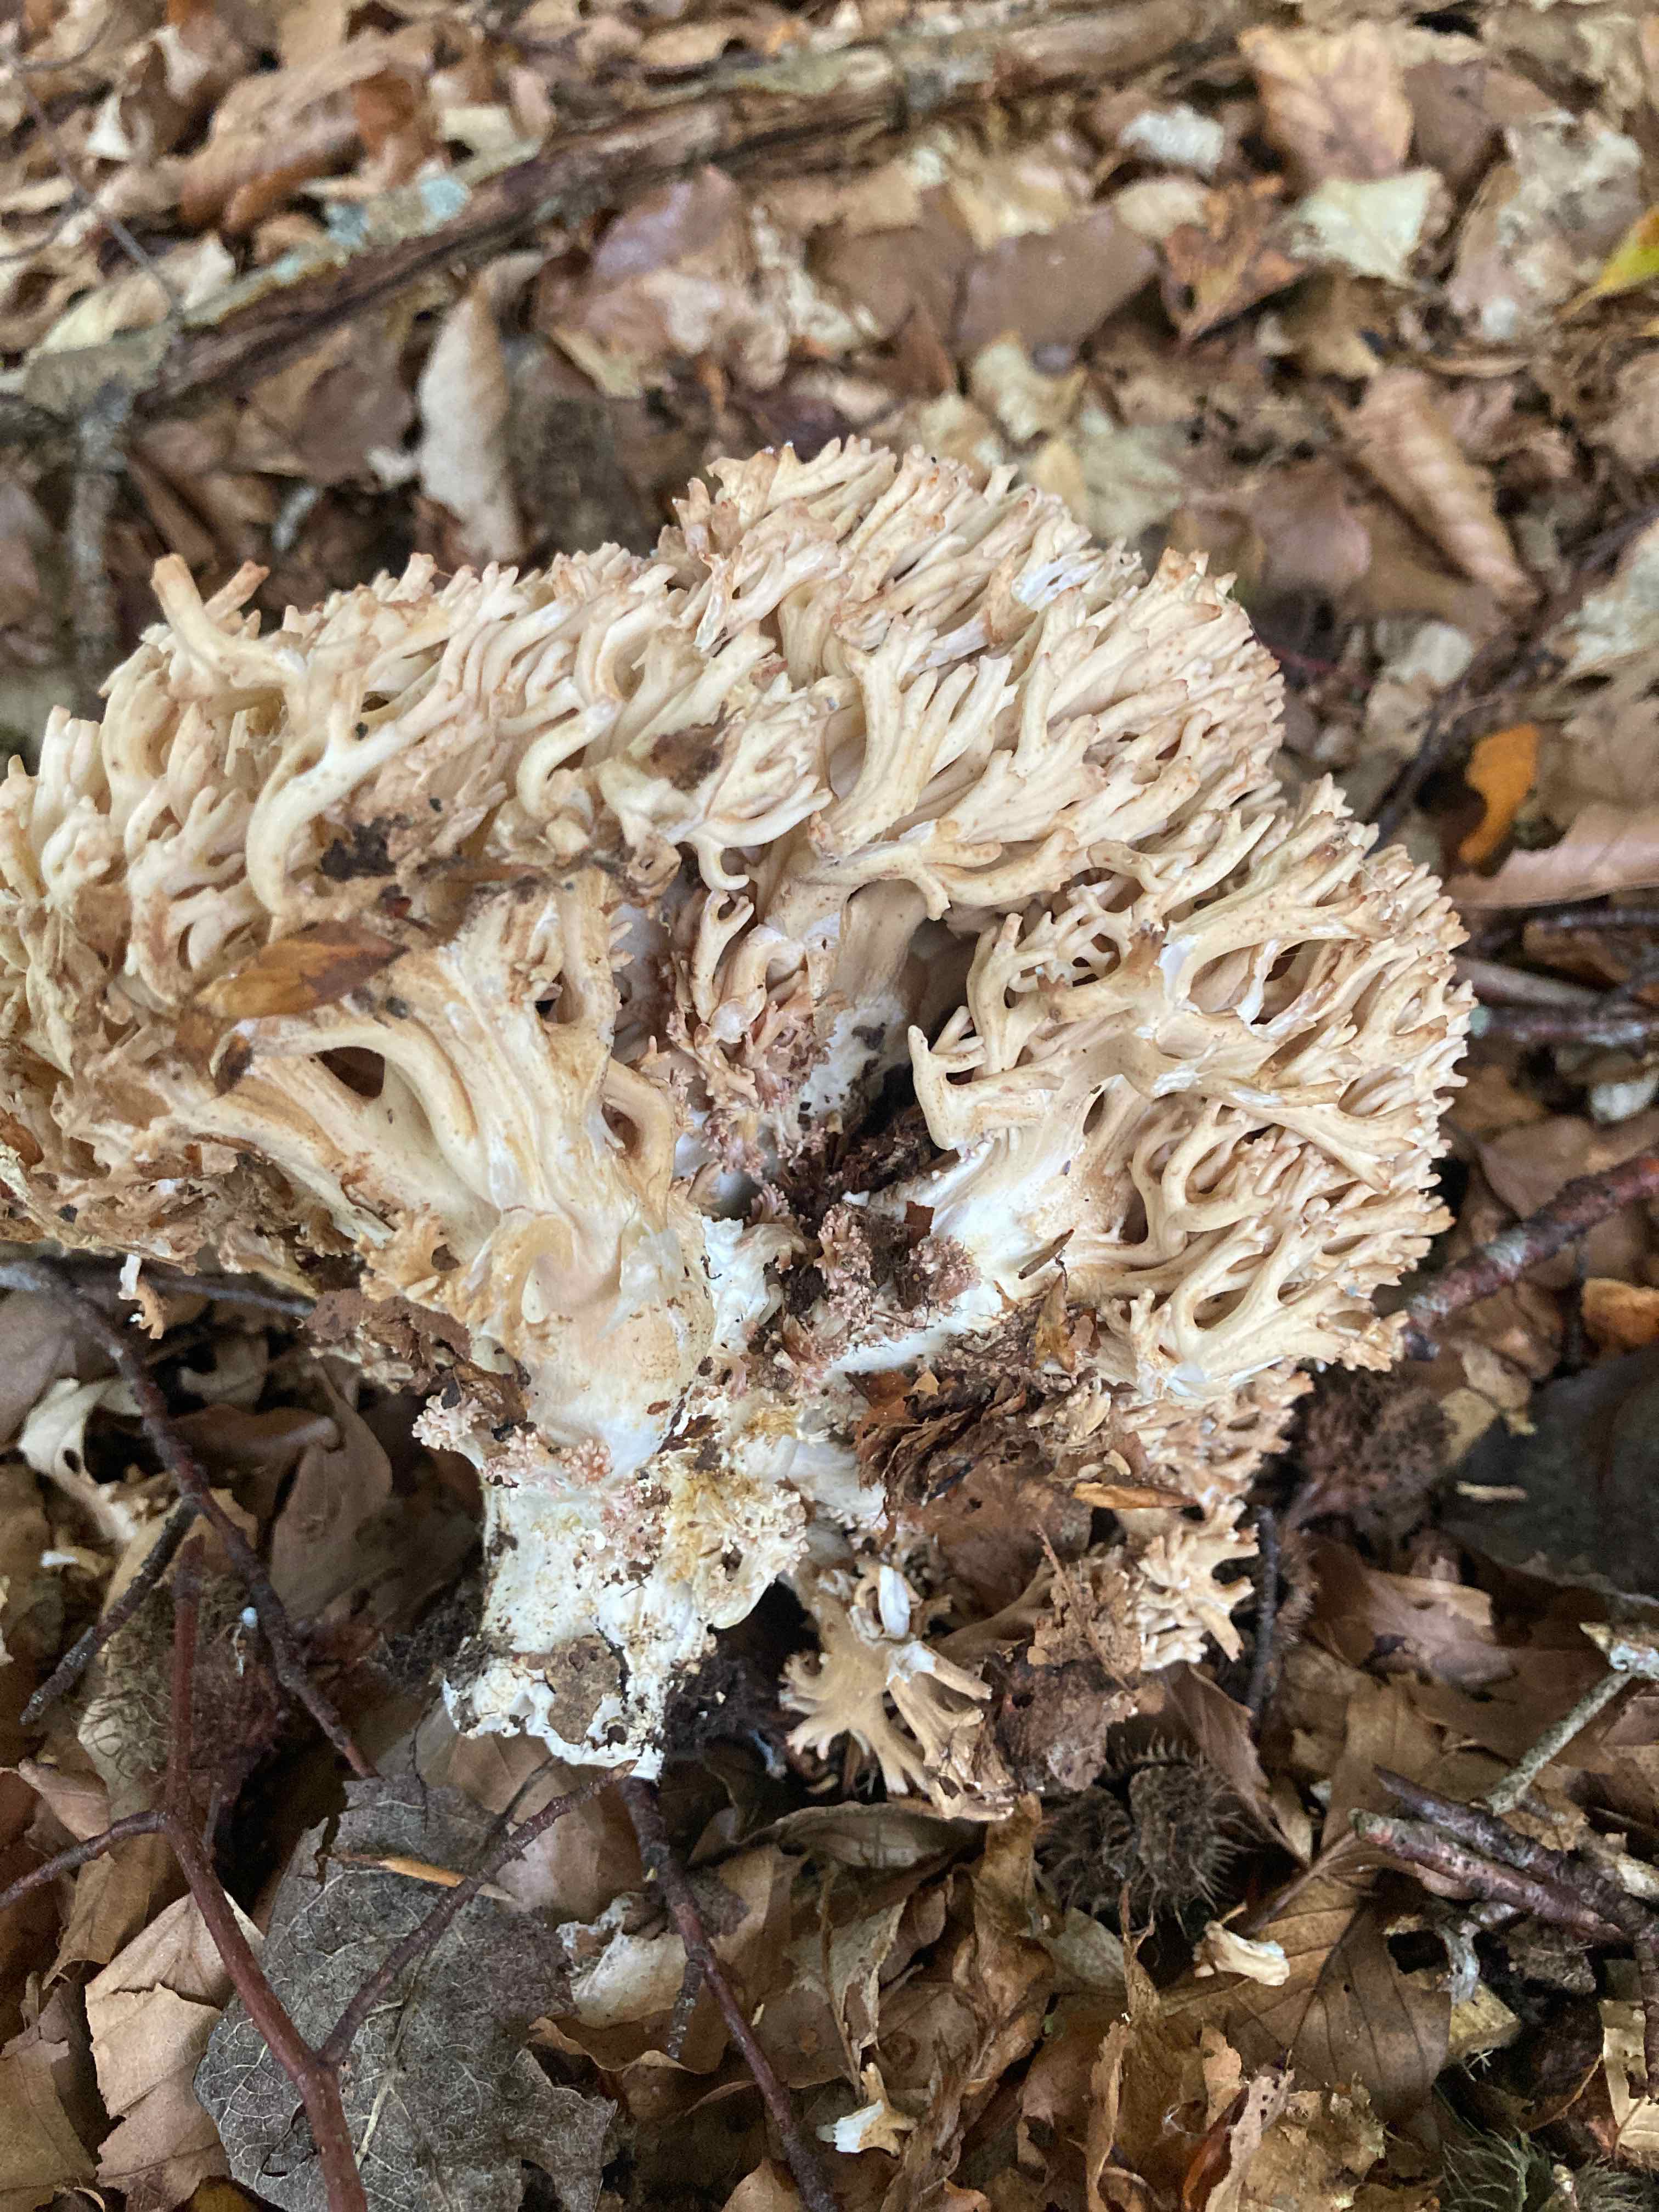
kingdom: Fungi
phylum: Basidiomycota
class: Agaricomycetes
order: Gomphales
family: Gomphaceae
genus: Ramaria
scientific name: Ramaria botrytis
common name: drue-koralsvamp
